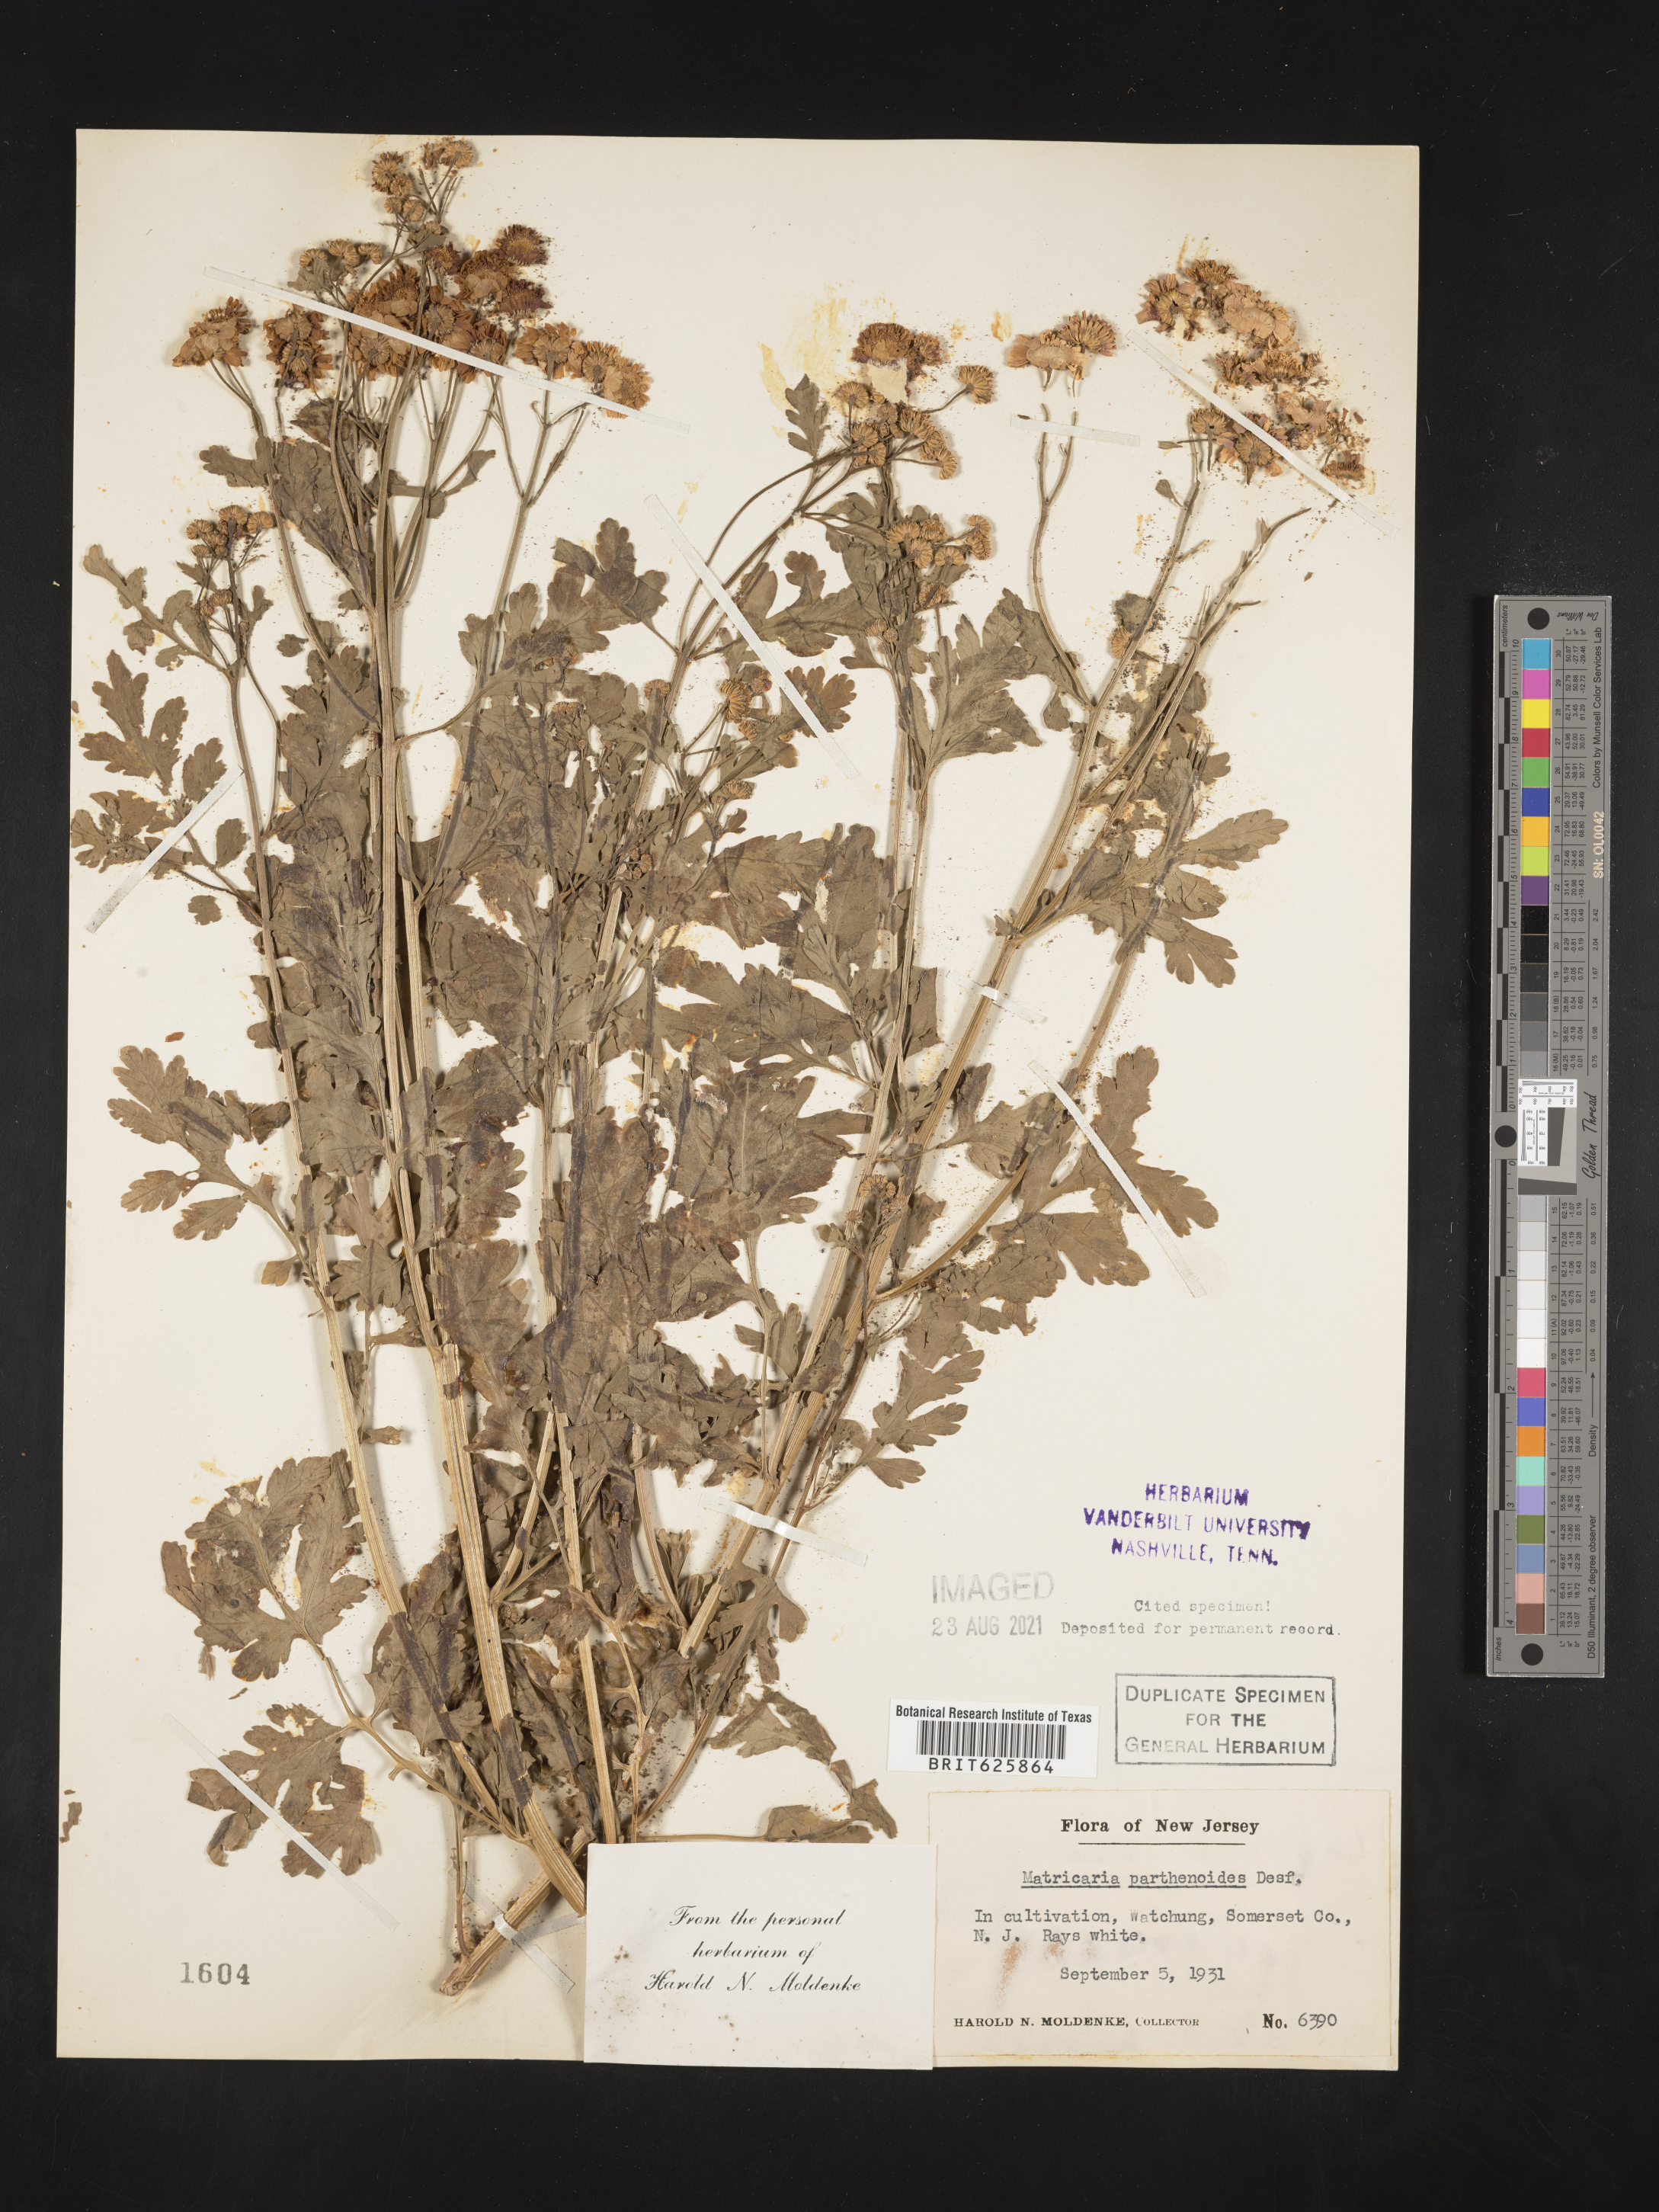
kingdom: Plantae
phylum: Tracheophyta
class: Magnoliopsida
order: Asterales
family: Asteraceae
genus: Chamaemelum
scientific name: Chamaemelum nobile
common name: Roman chamomile
